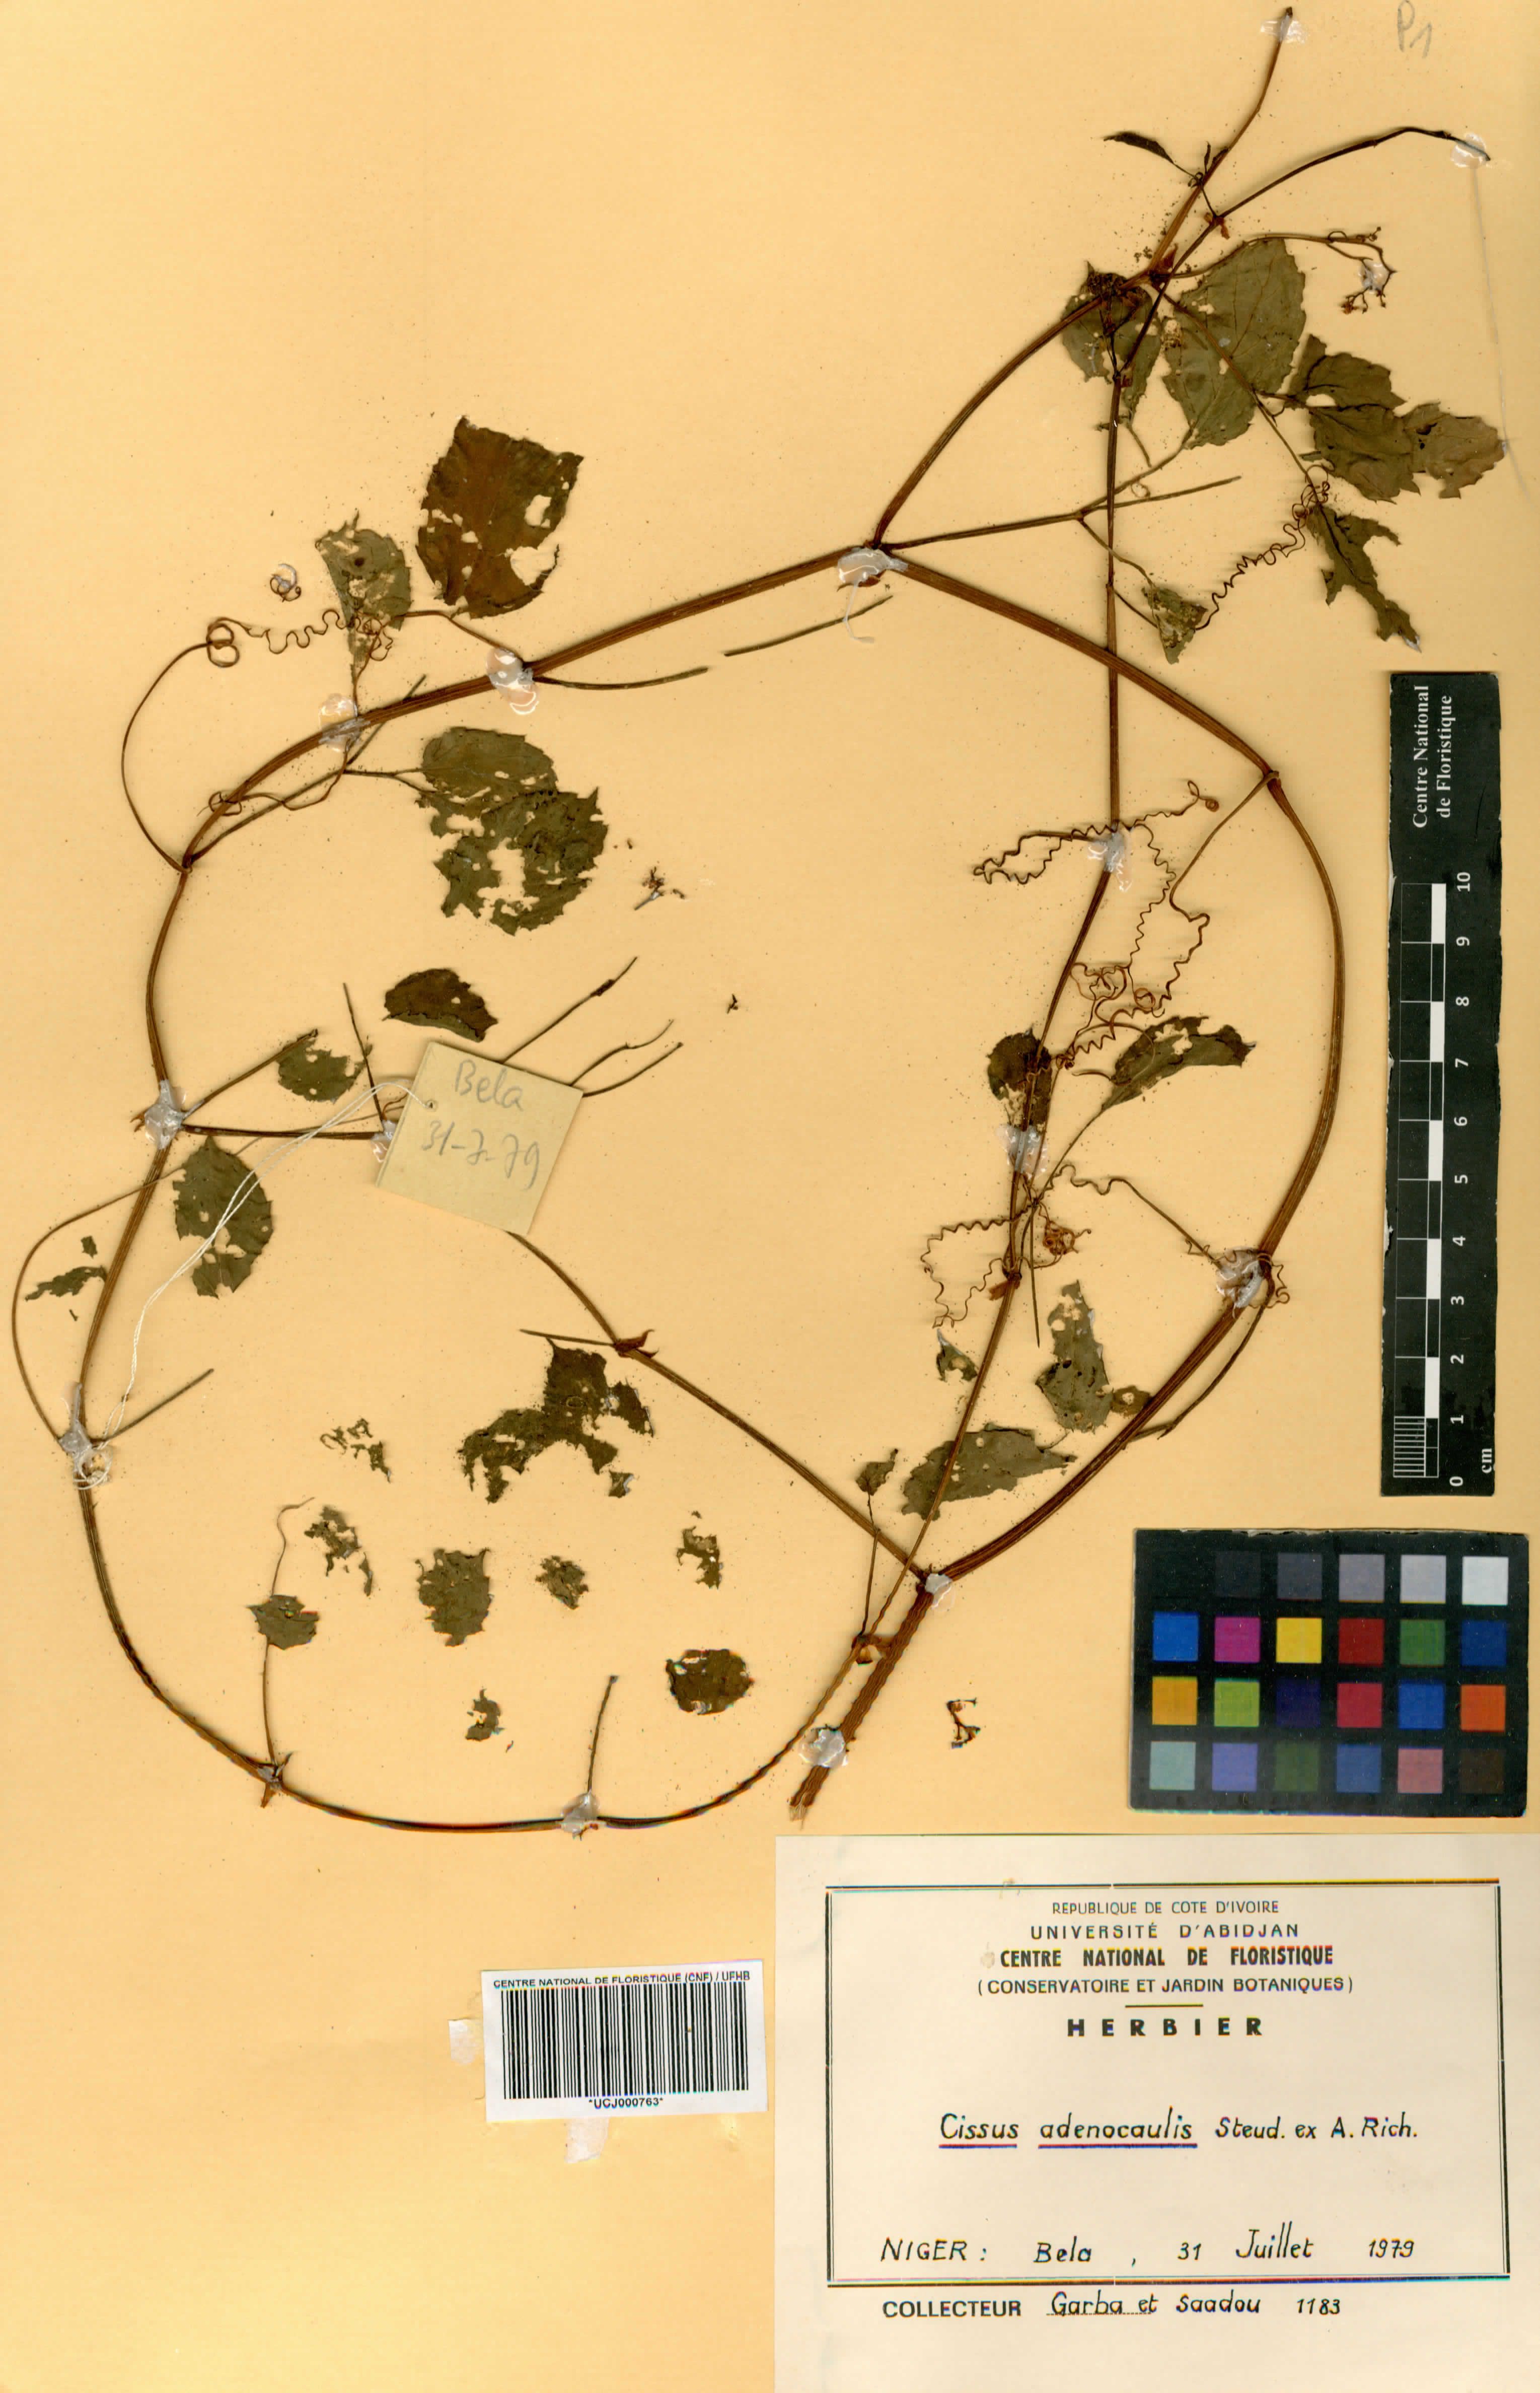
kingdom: Plantae
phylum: Tracheophyta
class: Magnoliopsida
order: Vitales
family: Vitaceae
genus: Cissus
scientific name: Cissus
